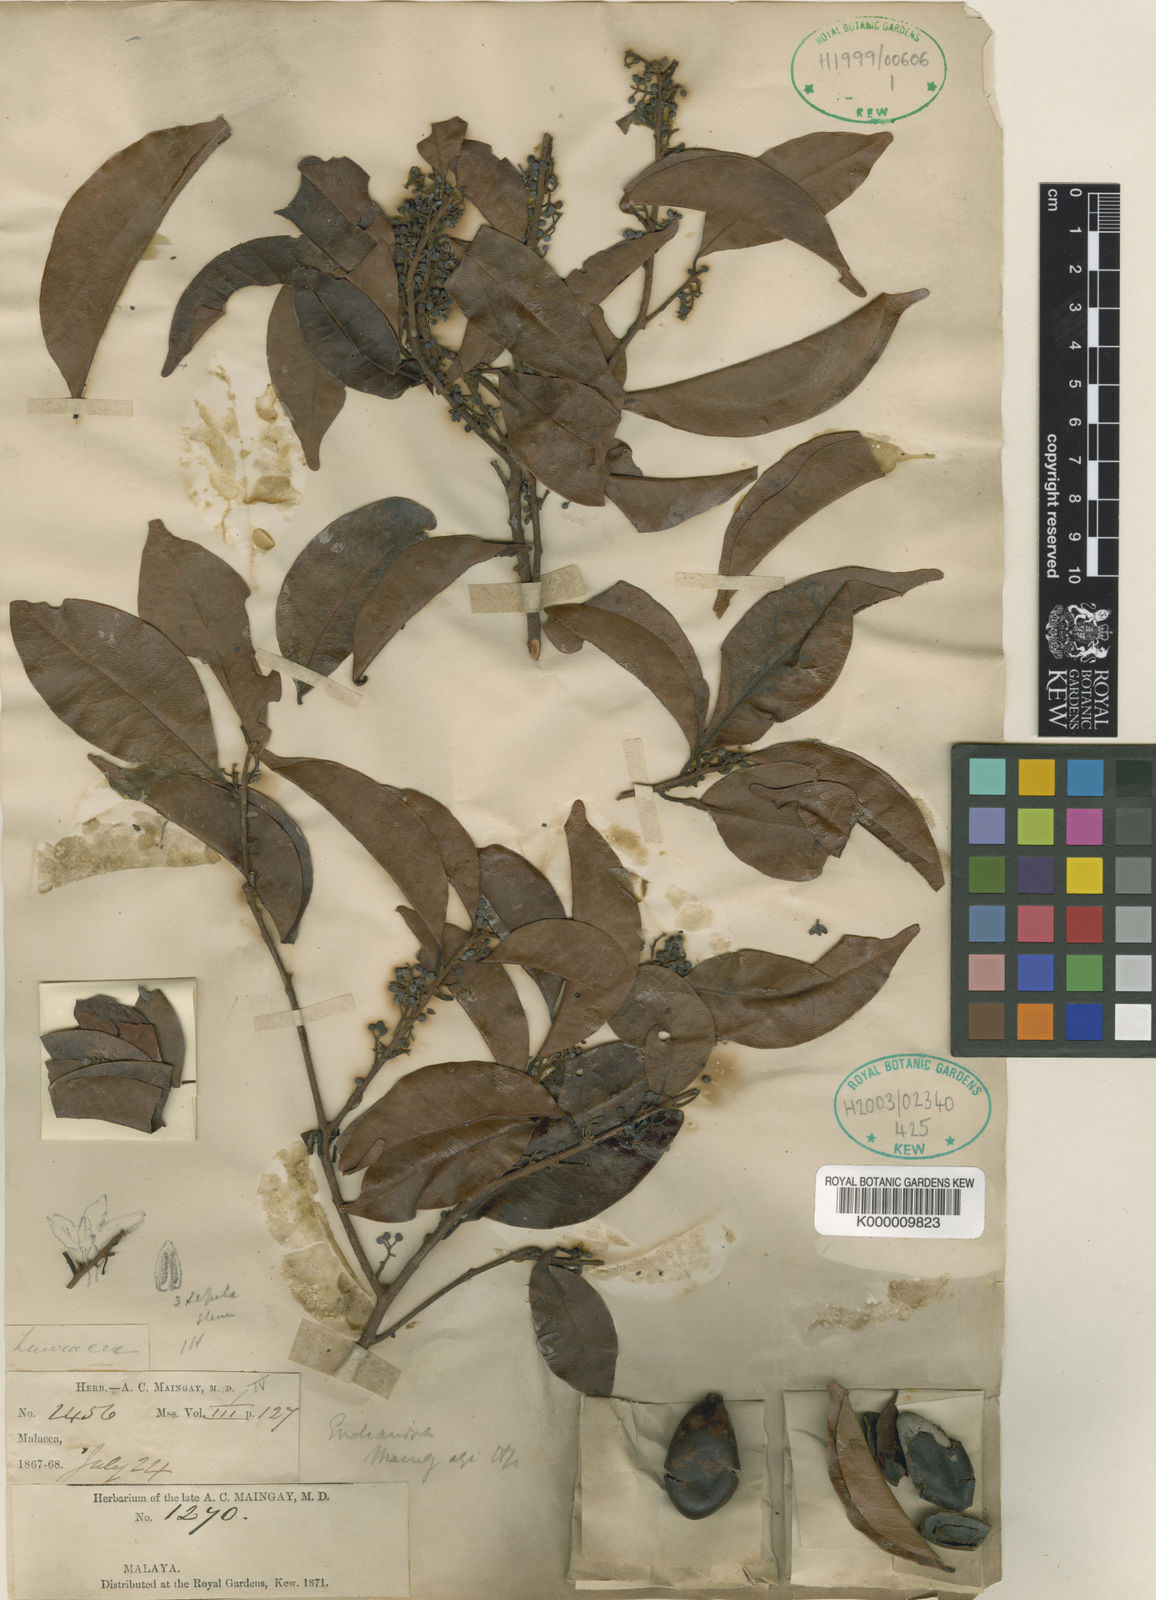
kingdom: Plantae
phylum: Tracheophyta
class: Magnoliopsida
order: Laurales
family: Lauraceae
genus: Endiandra
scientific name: Endiandra maingayi
